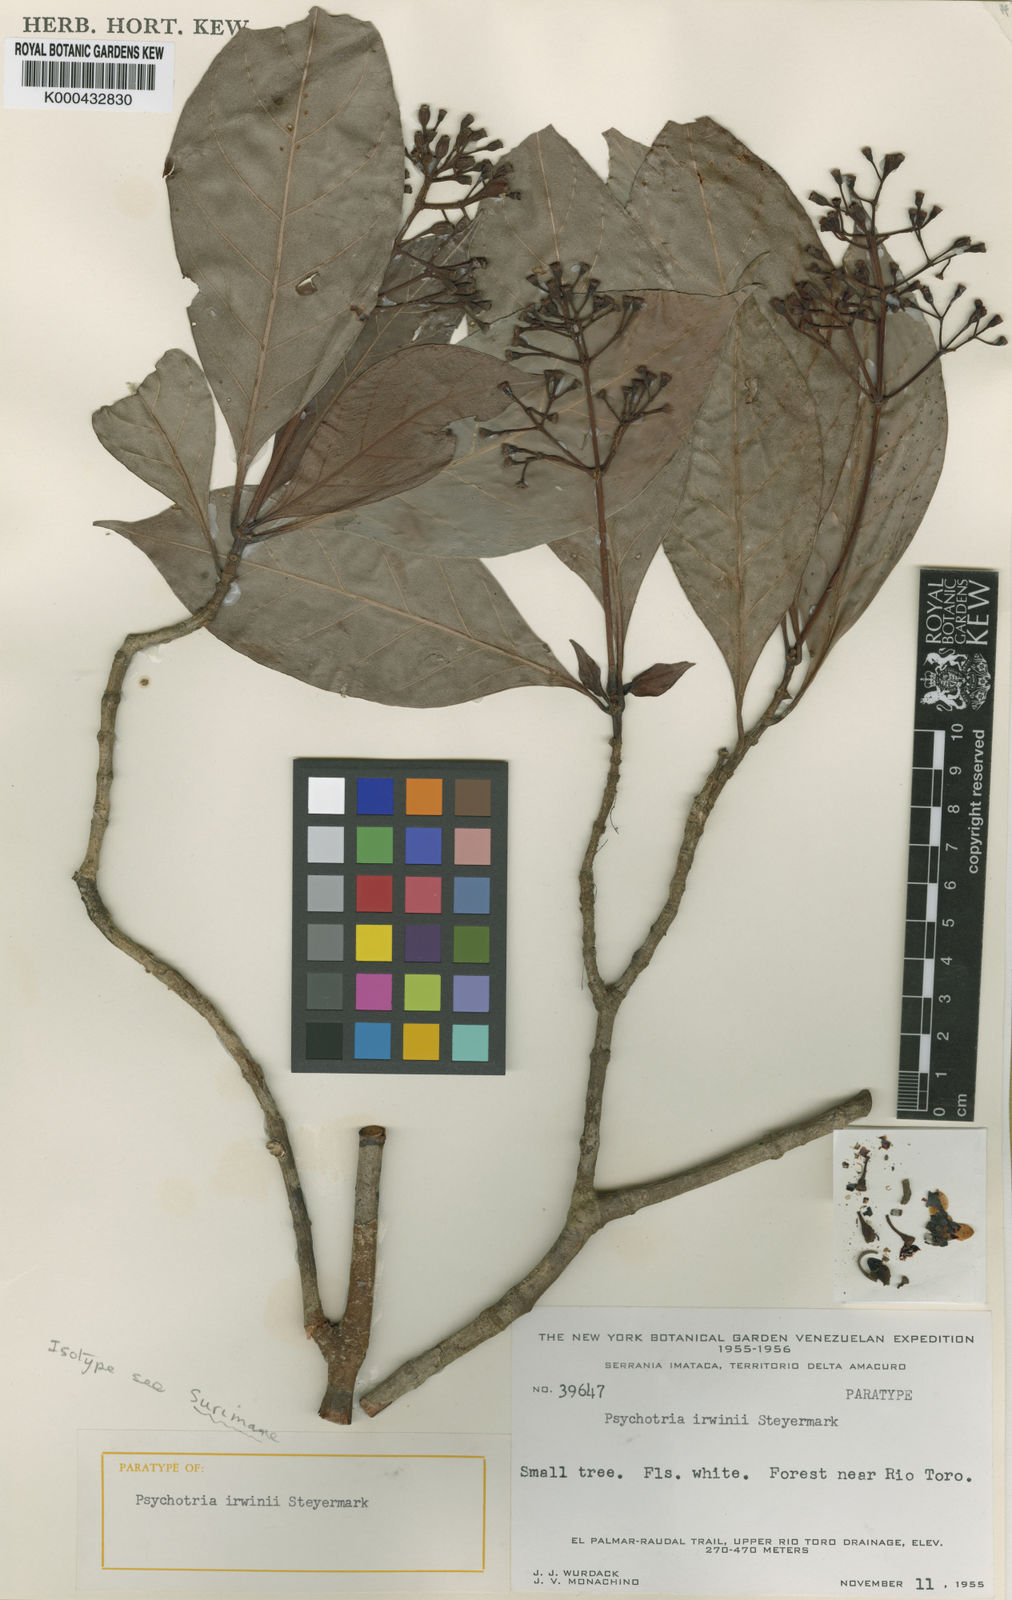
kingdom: Plantae
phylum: Tracheophyta
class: Magnoliopsida
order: Gentianales
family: Rubiaceae
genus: Psychotria
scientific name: Psychotria irwinii
